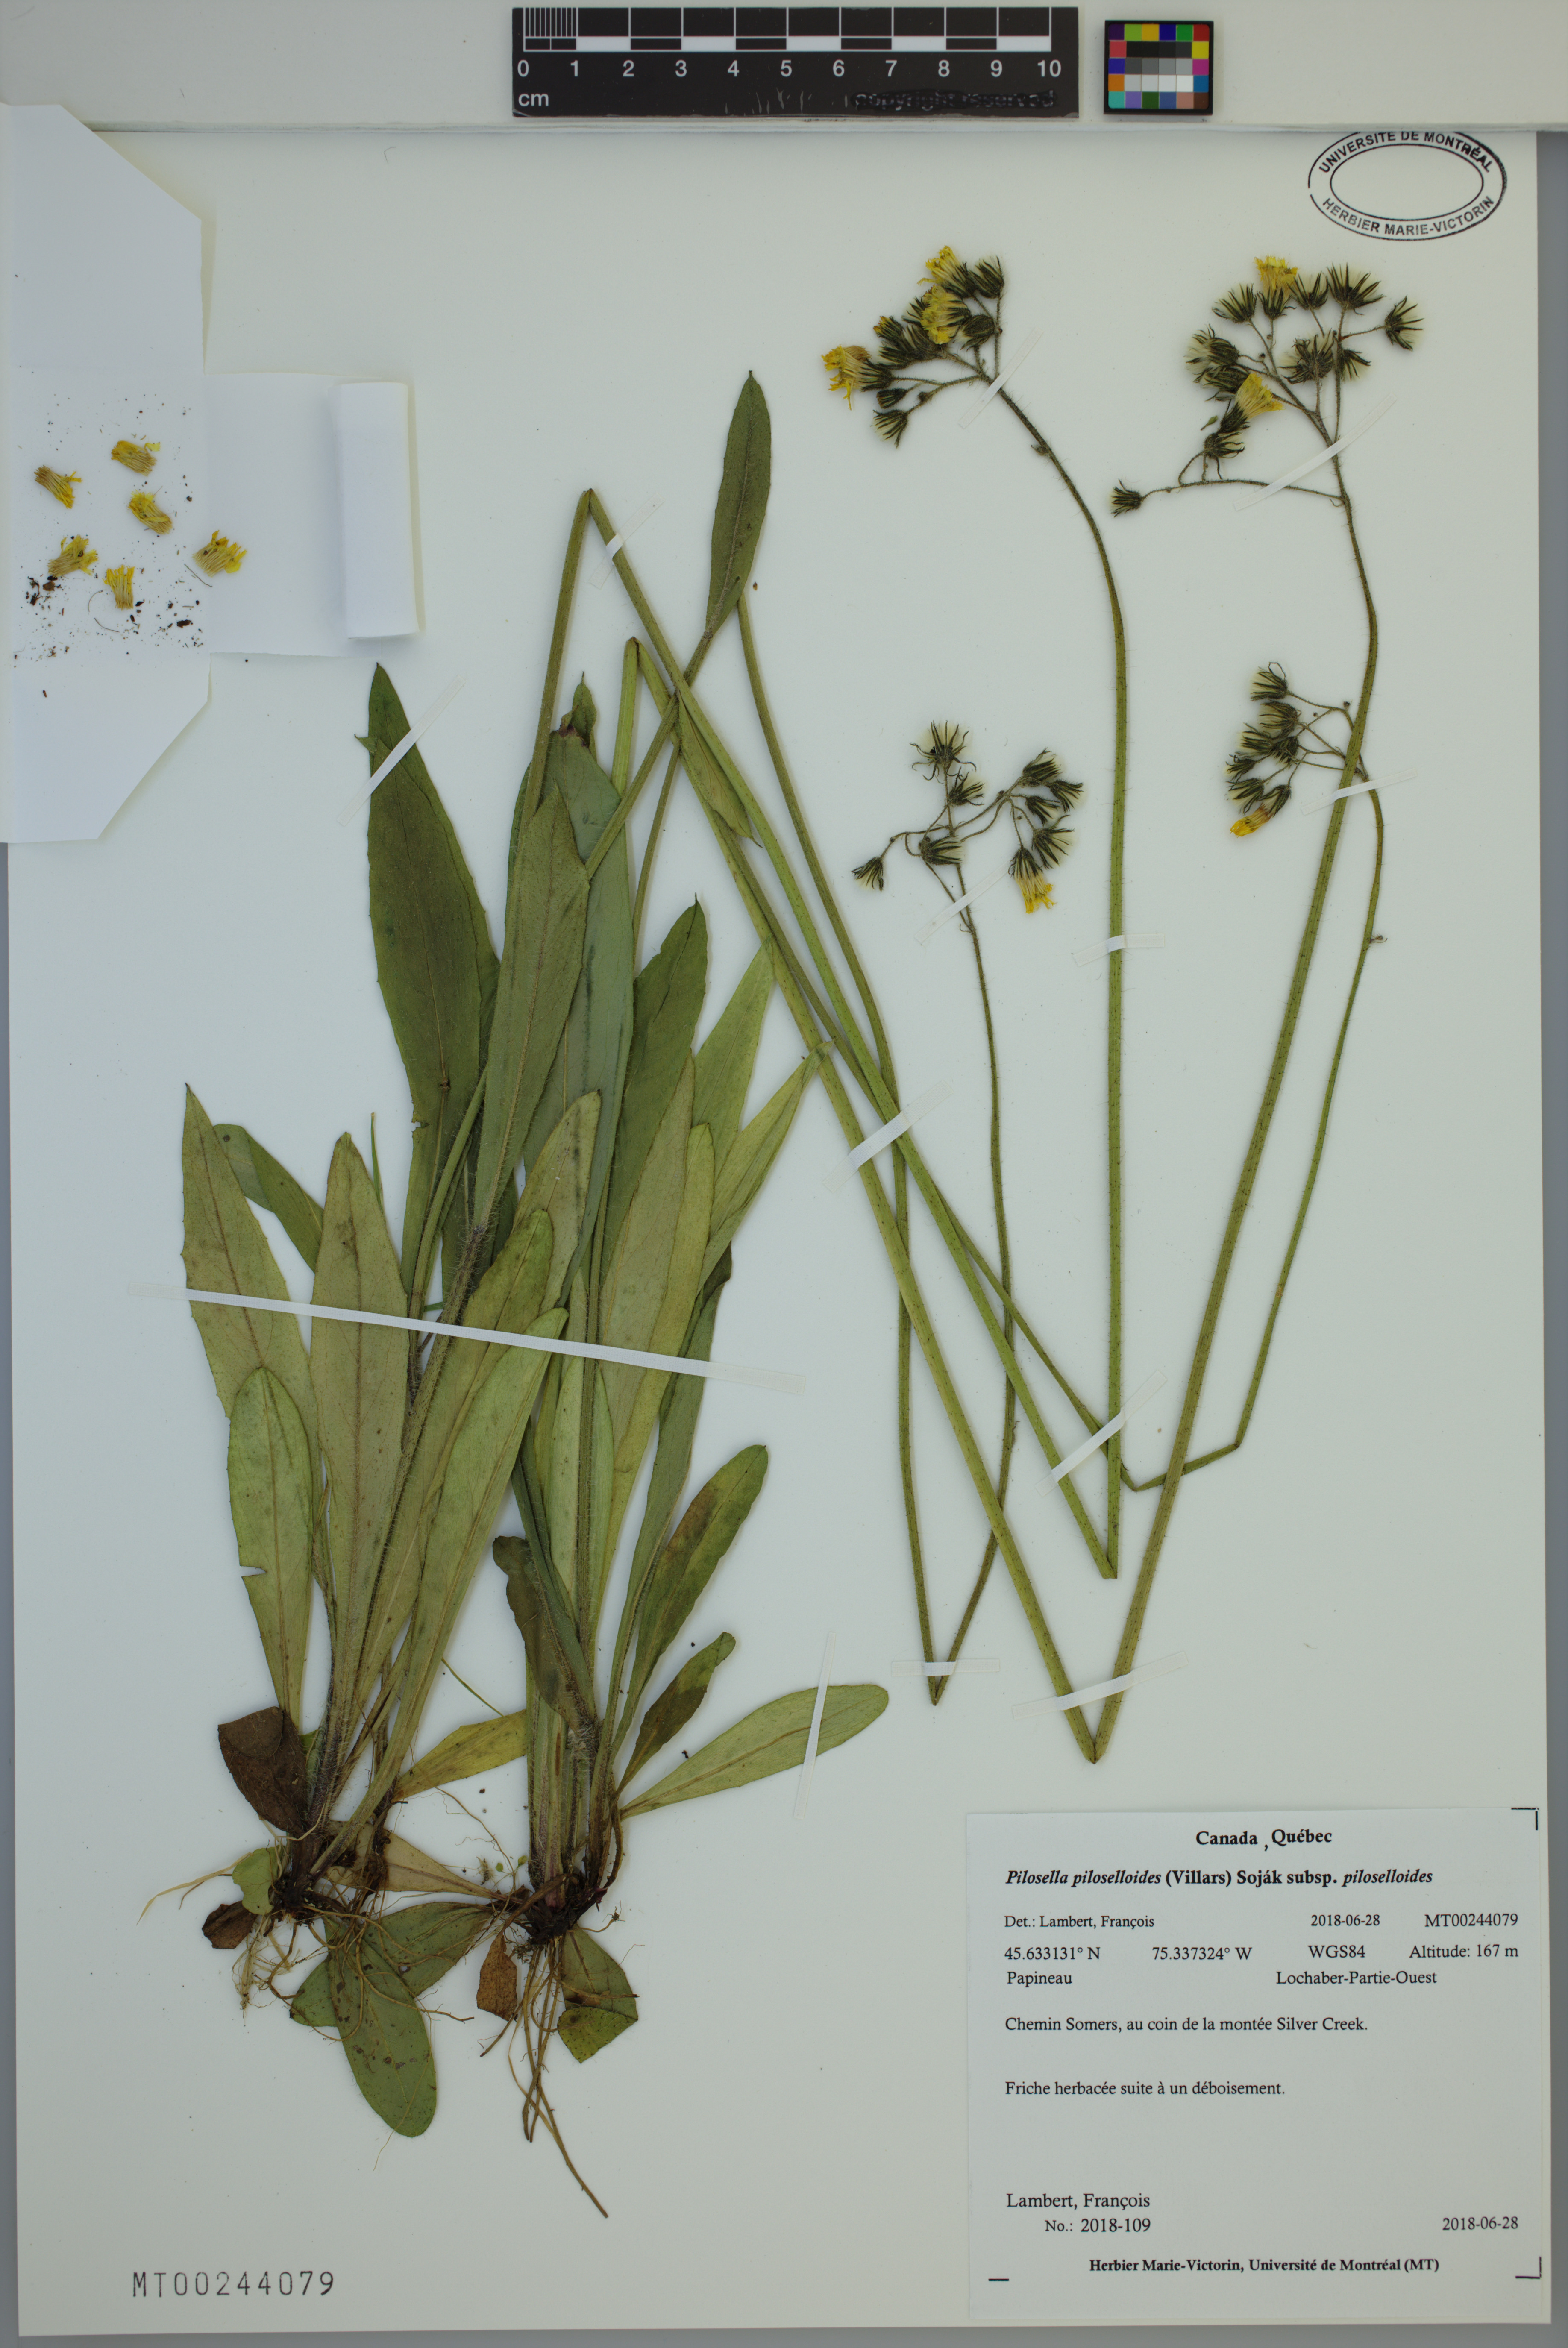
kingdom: Plantae
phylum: Tracheophyta
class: Magnoliopsida
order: Asterales
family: Asteraceae
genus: Pilosella
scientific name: Pilosella piloselloides
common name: Glaucous king-devil
